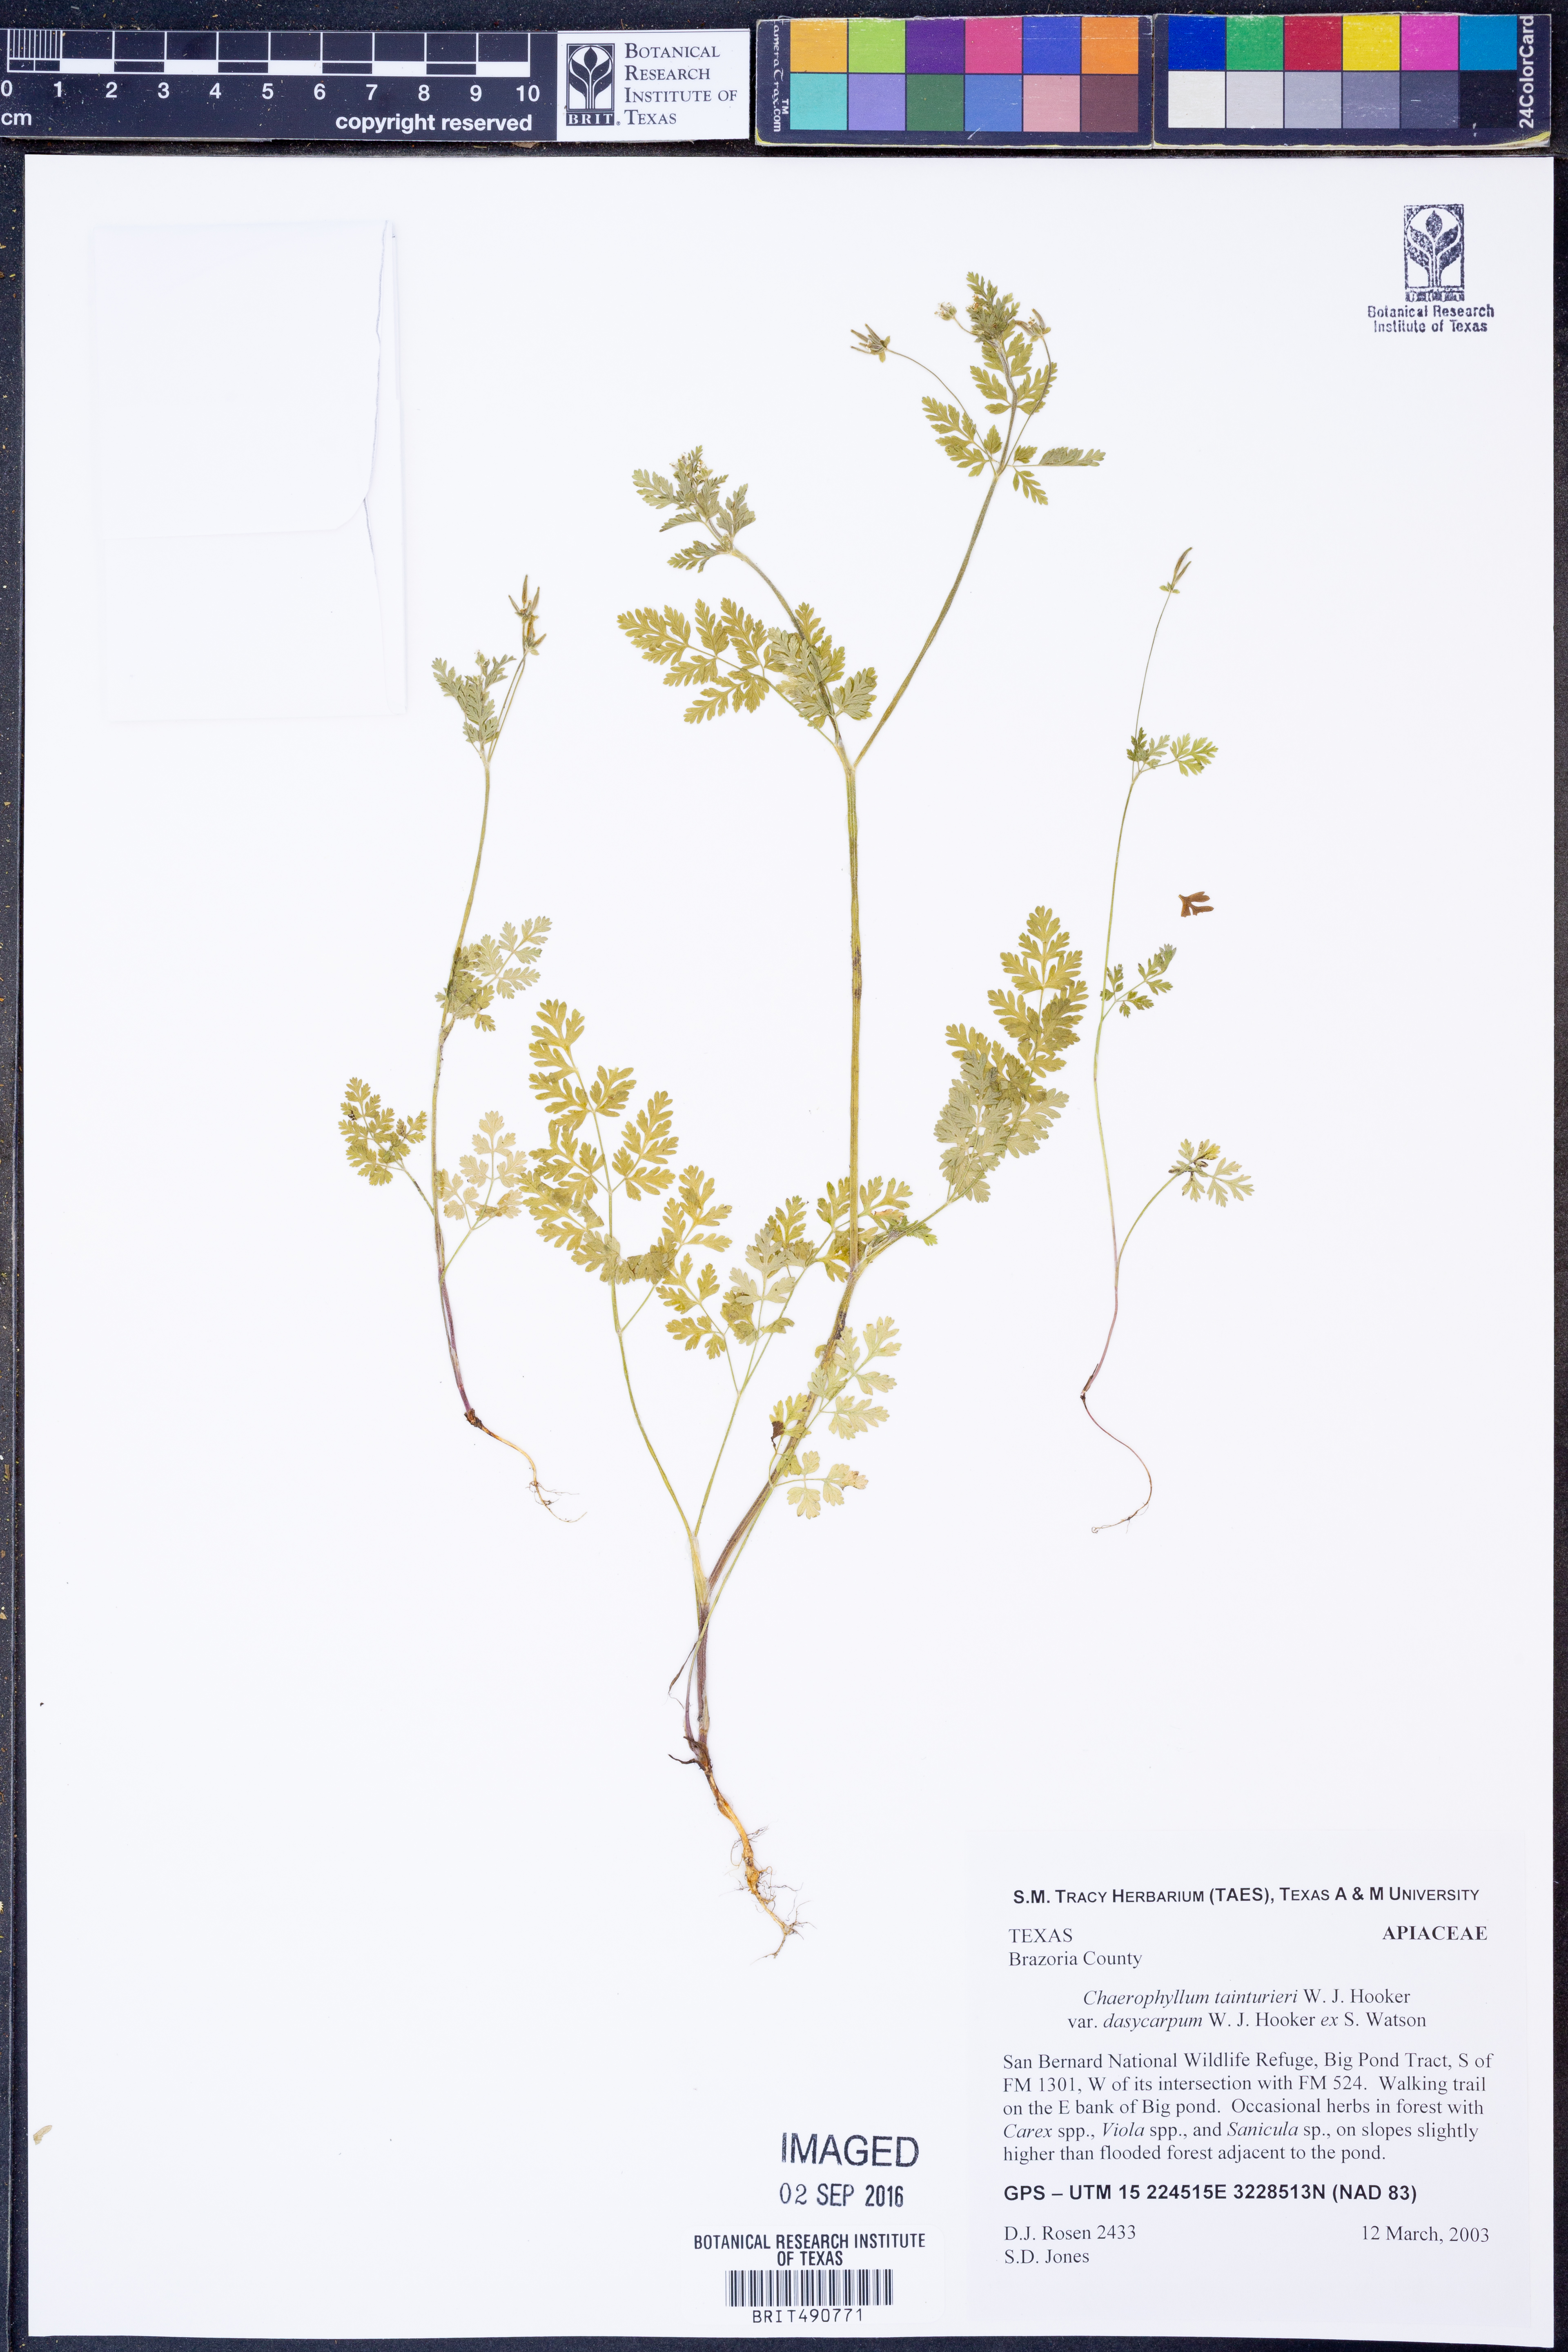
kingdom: Plantae
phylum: Tracheophyta
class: Magnoliopsida
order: Apiales
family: Apiaceae
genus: Chaerophyllum
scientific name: Chaerophyllum dasycarpum
